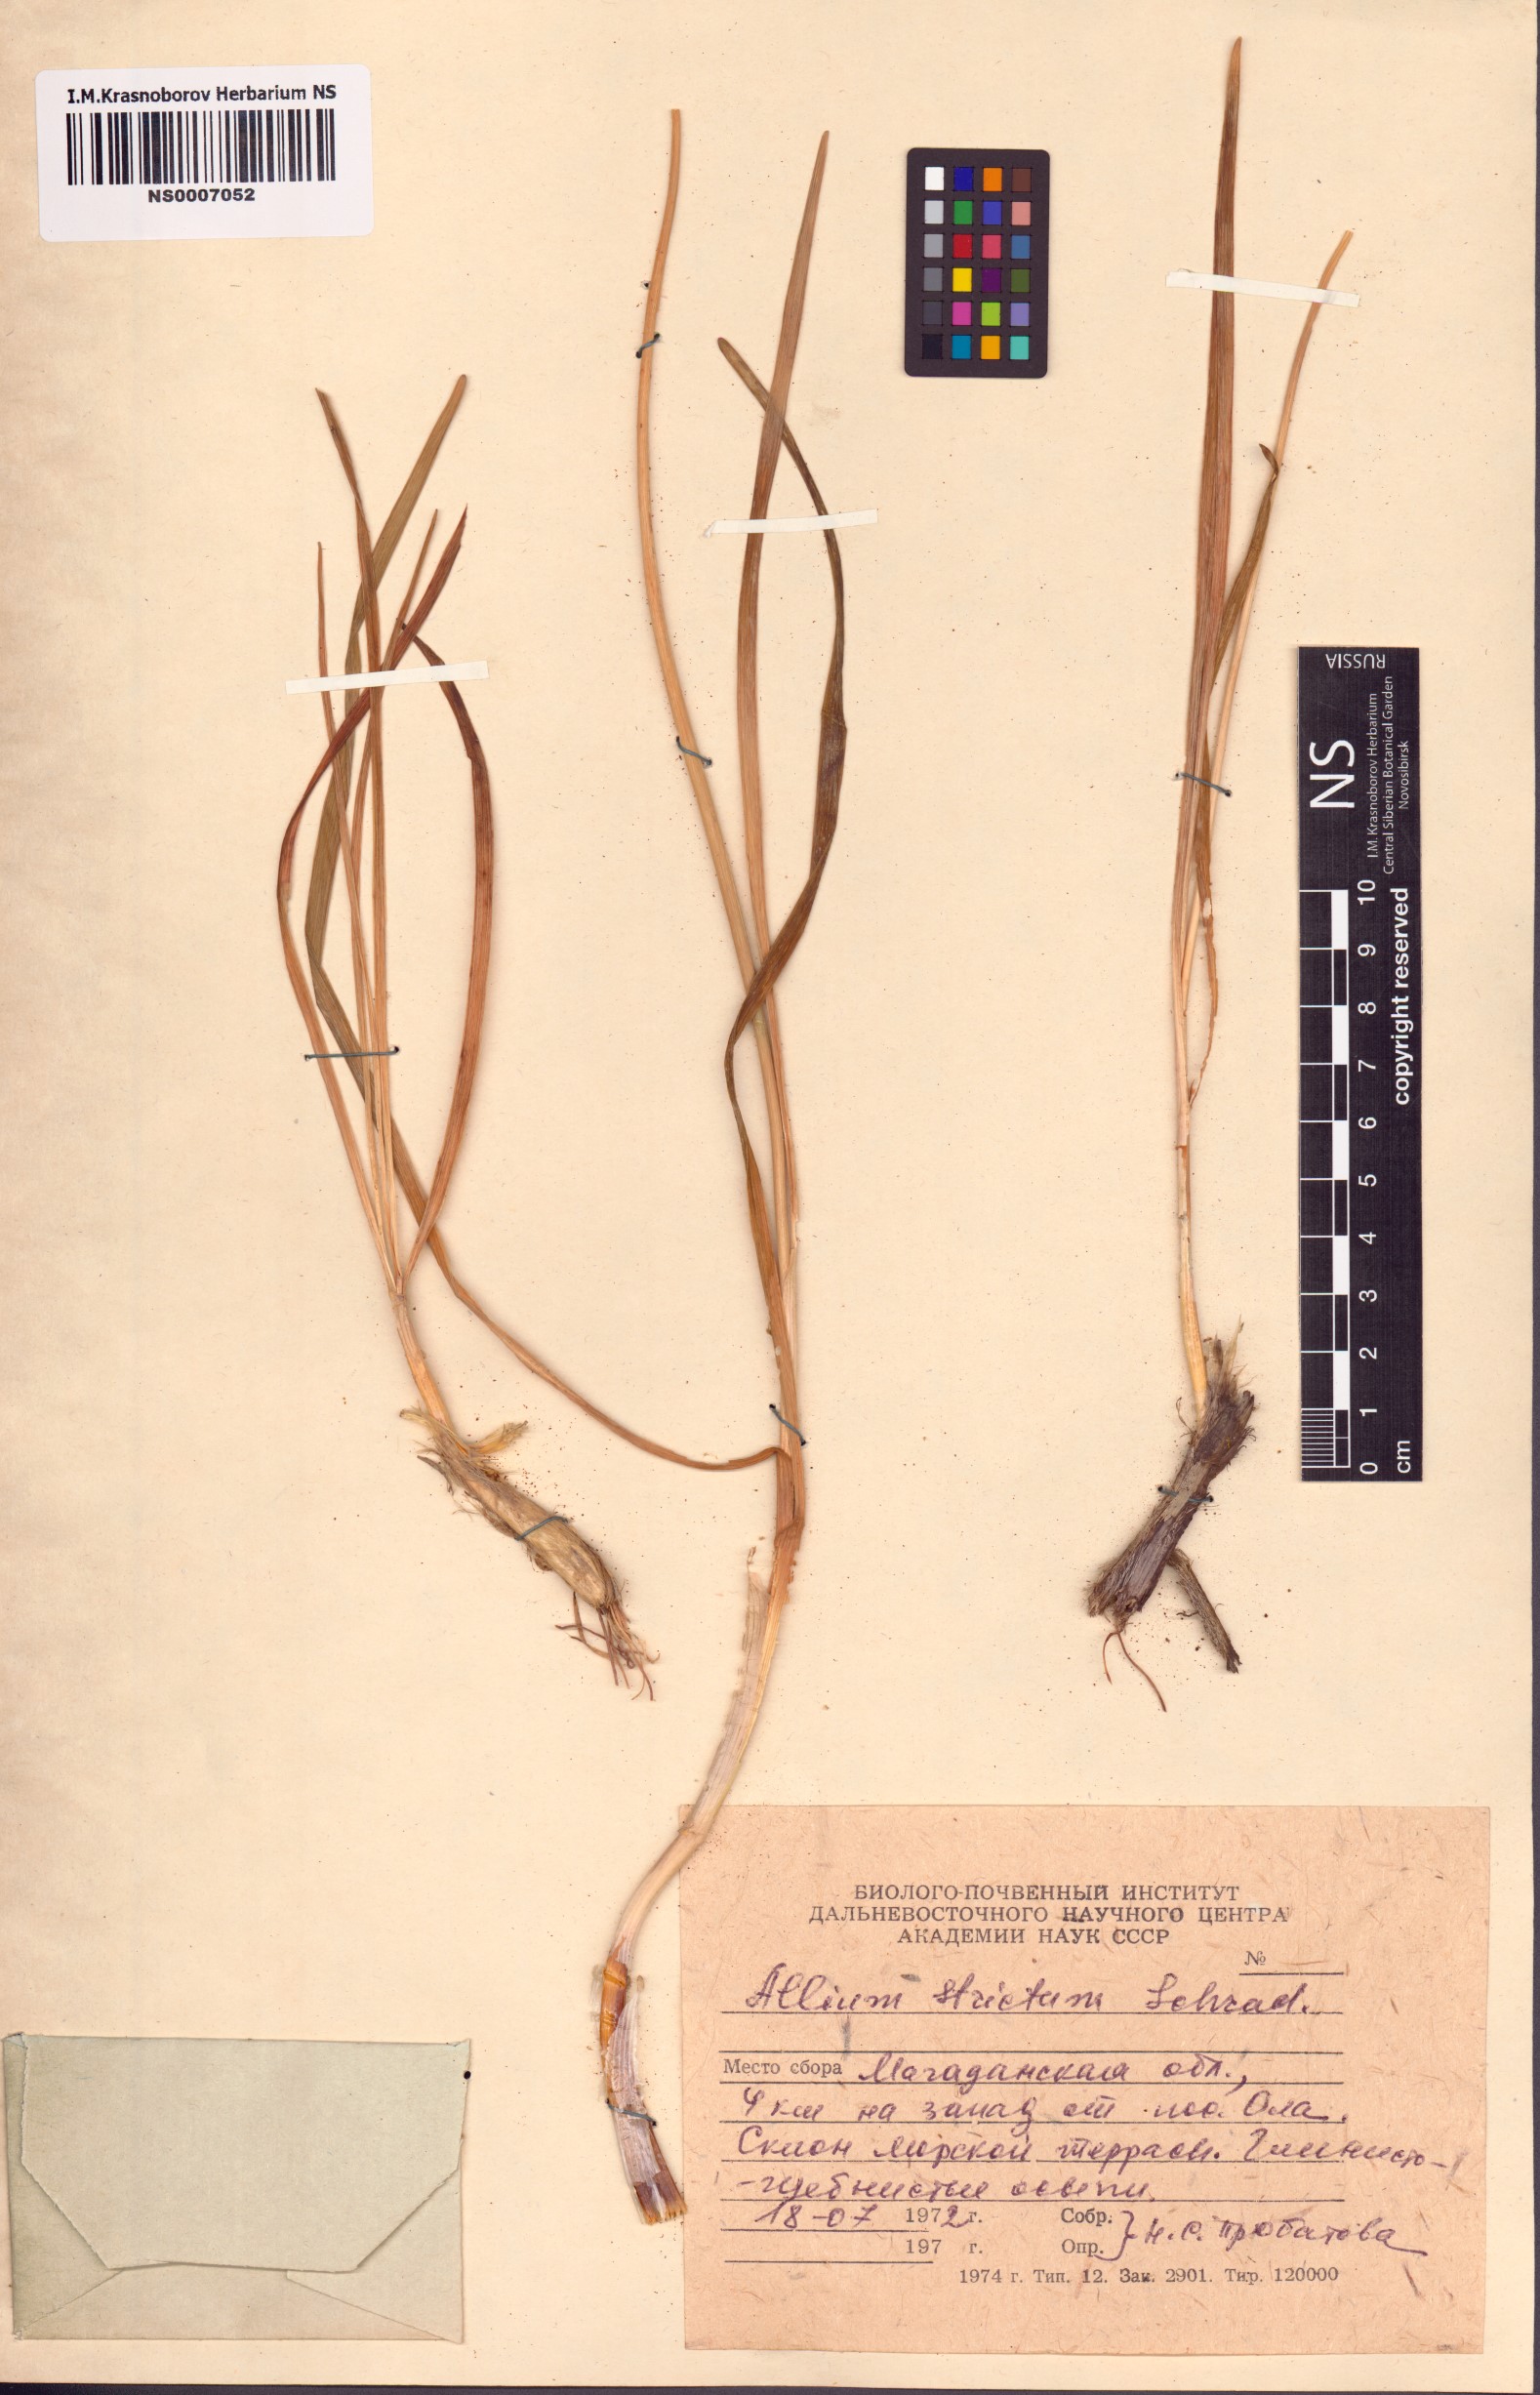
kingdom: Plantae
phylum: Tracheophyta
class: Liliopsida
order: Asparagales
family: Amaryllidaceae
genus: Allium
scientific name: Allium strictum
